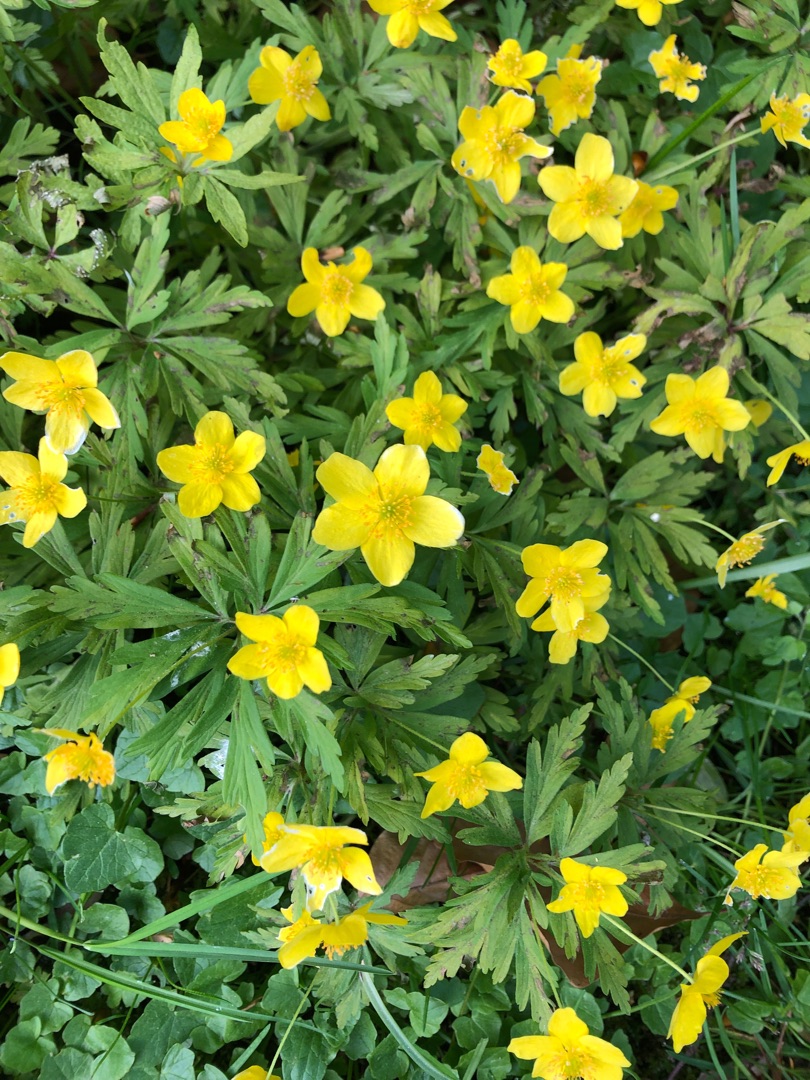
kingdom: Plantae
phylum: Tracheophyta
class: Magnoliopsida
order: Ranunculales
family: Ranunculaceae
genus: Anemone
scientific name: Anemone ranunculoides
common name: Gul anemone
